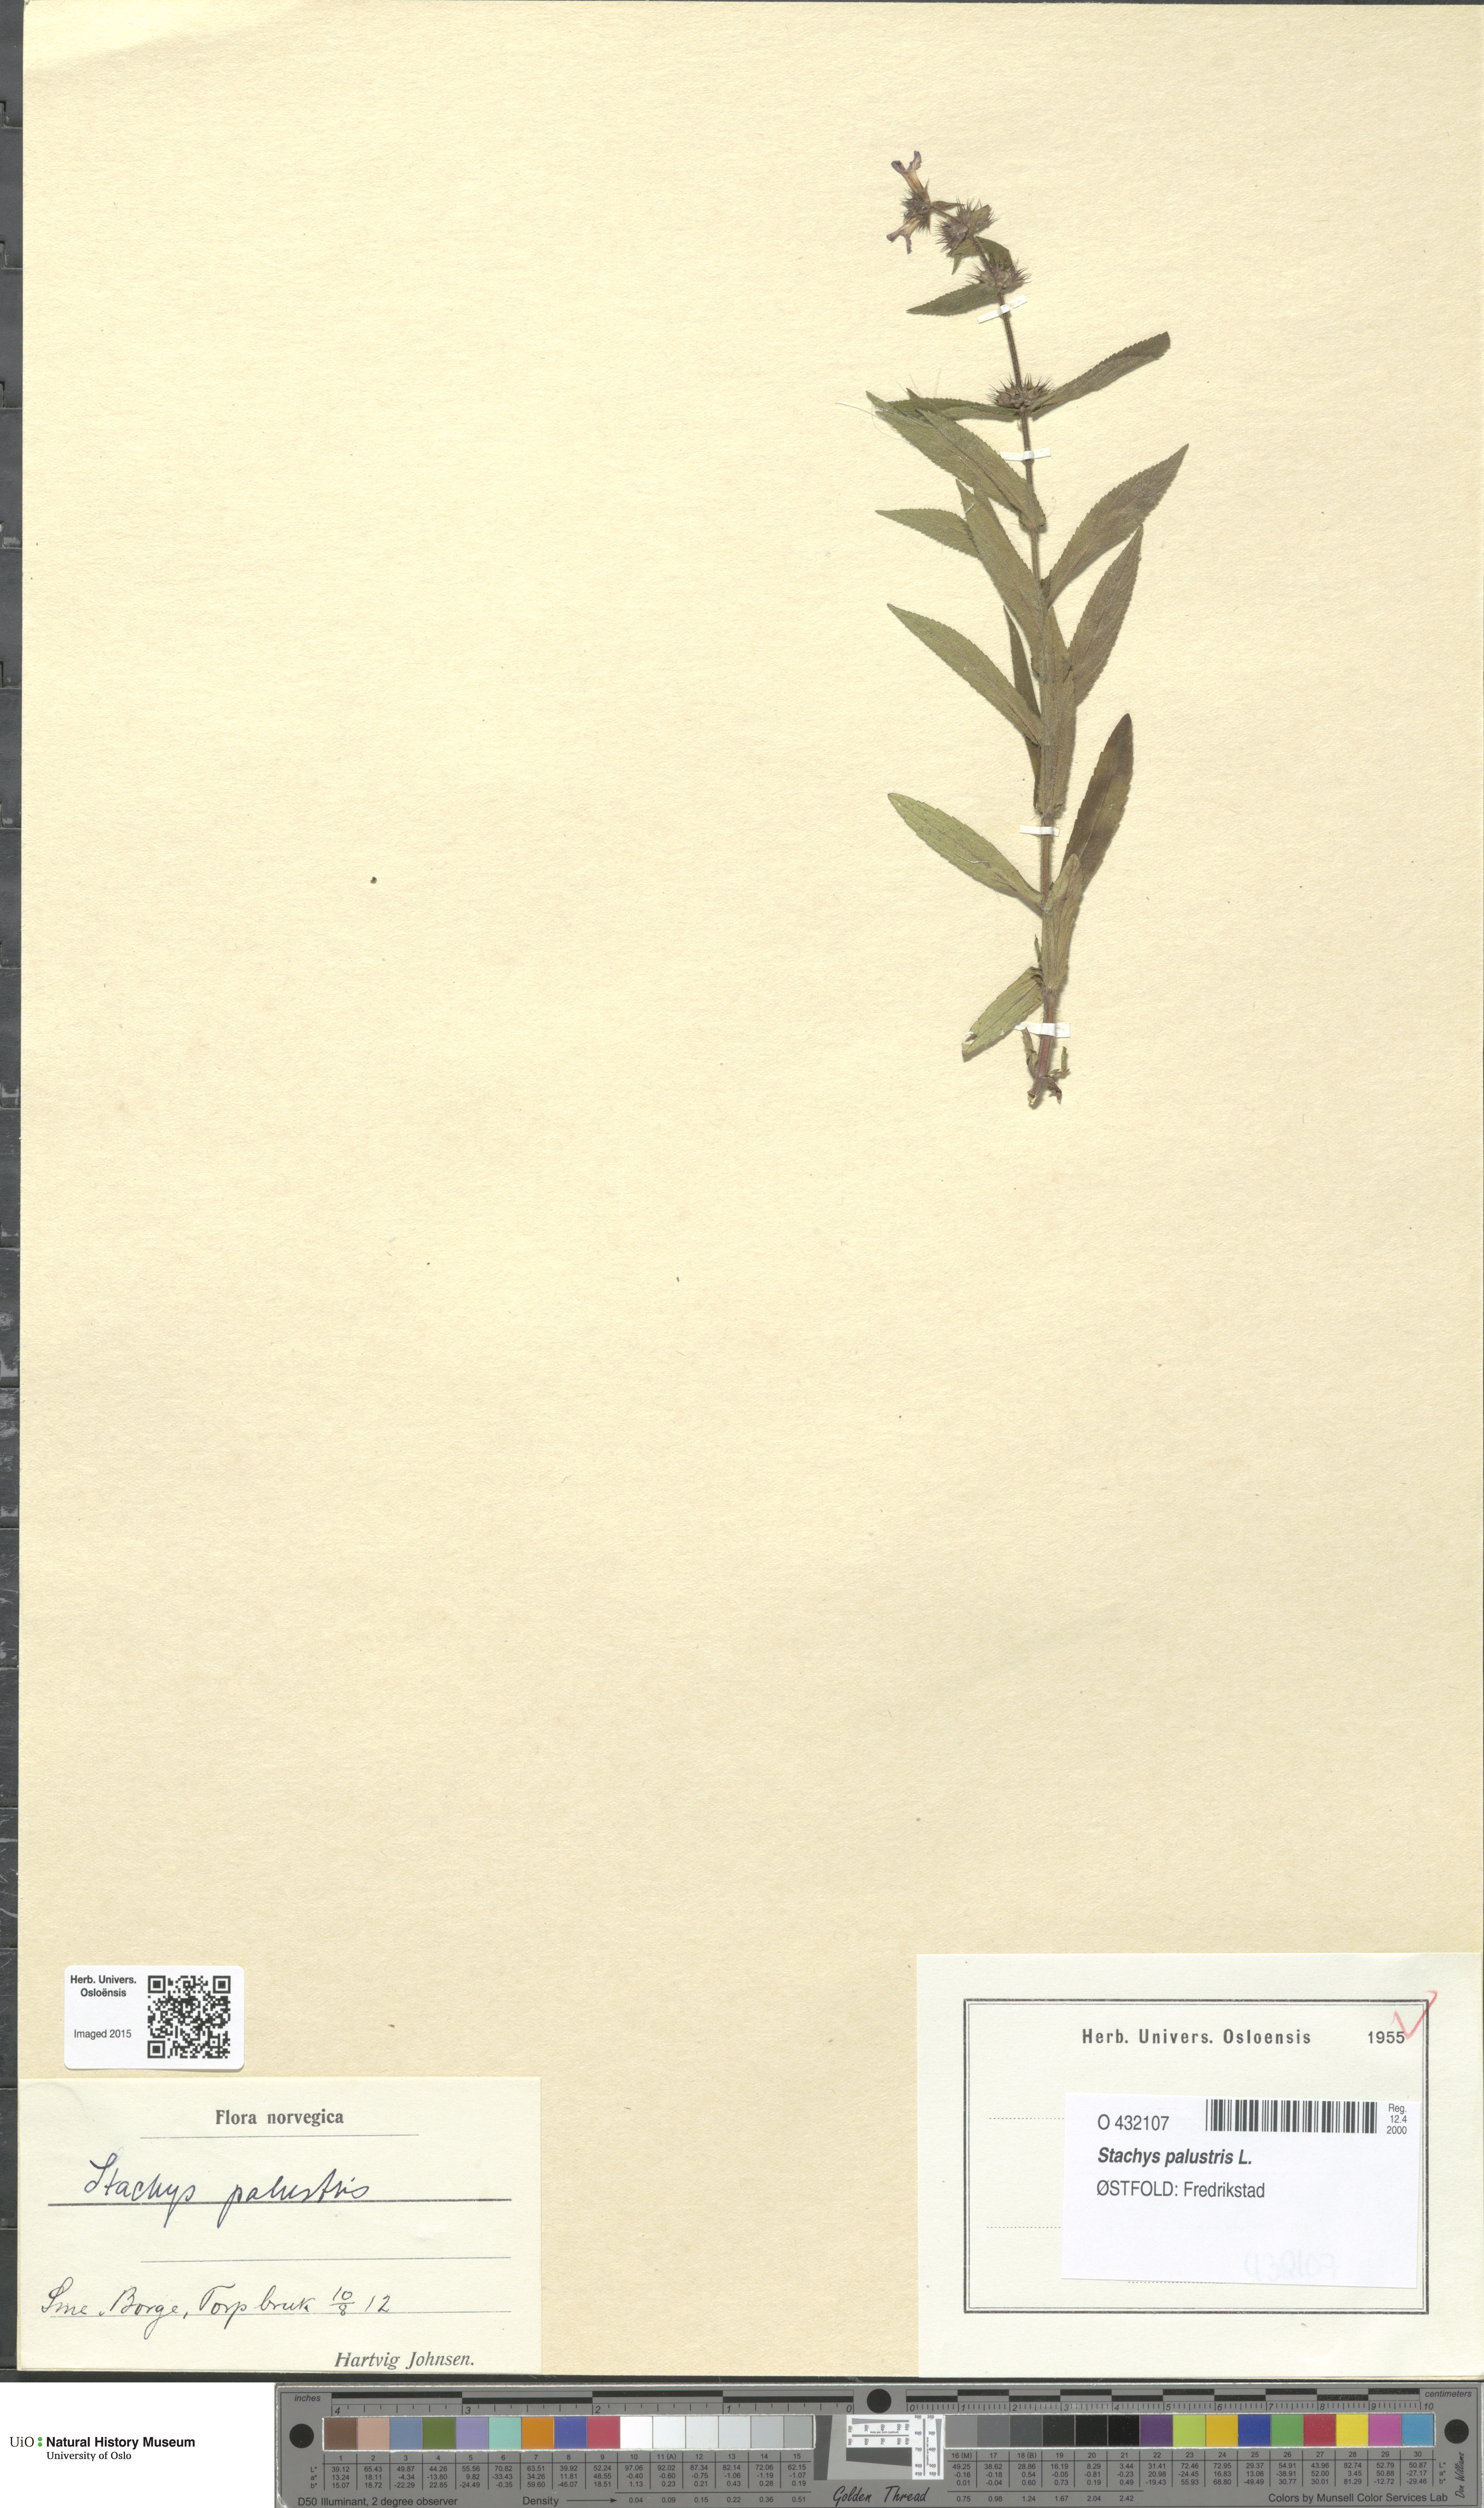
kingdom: Plantae
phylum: Tracheophyta
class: Magnoliopsida
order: Lamiales
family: Lamiaceae
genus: Stachys
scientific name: Stachys palustris
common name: Marsh woundwort
